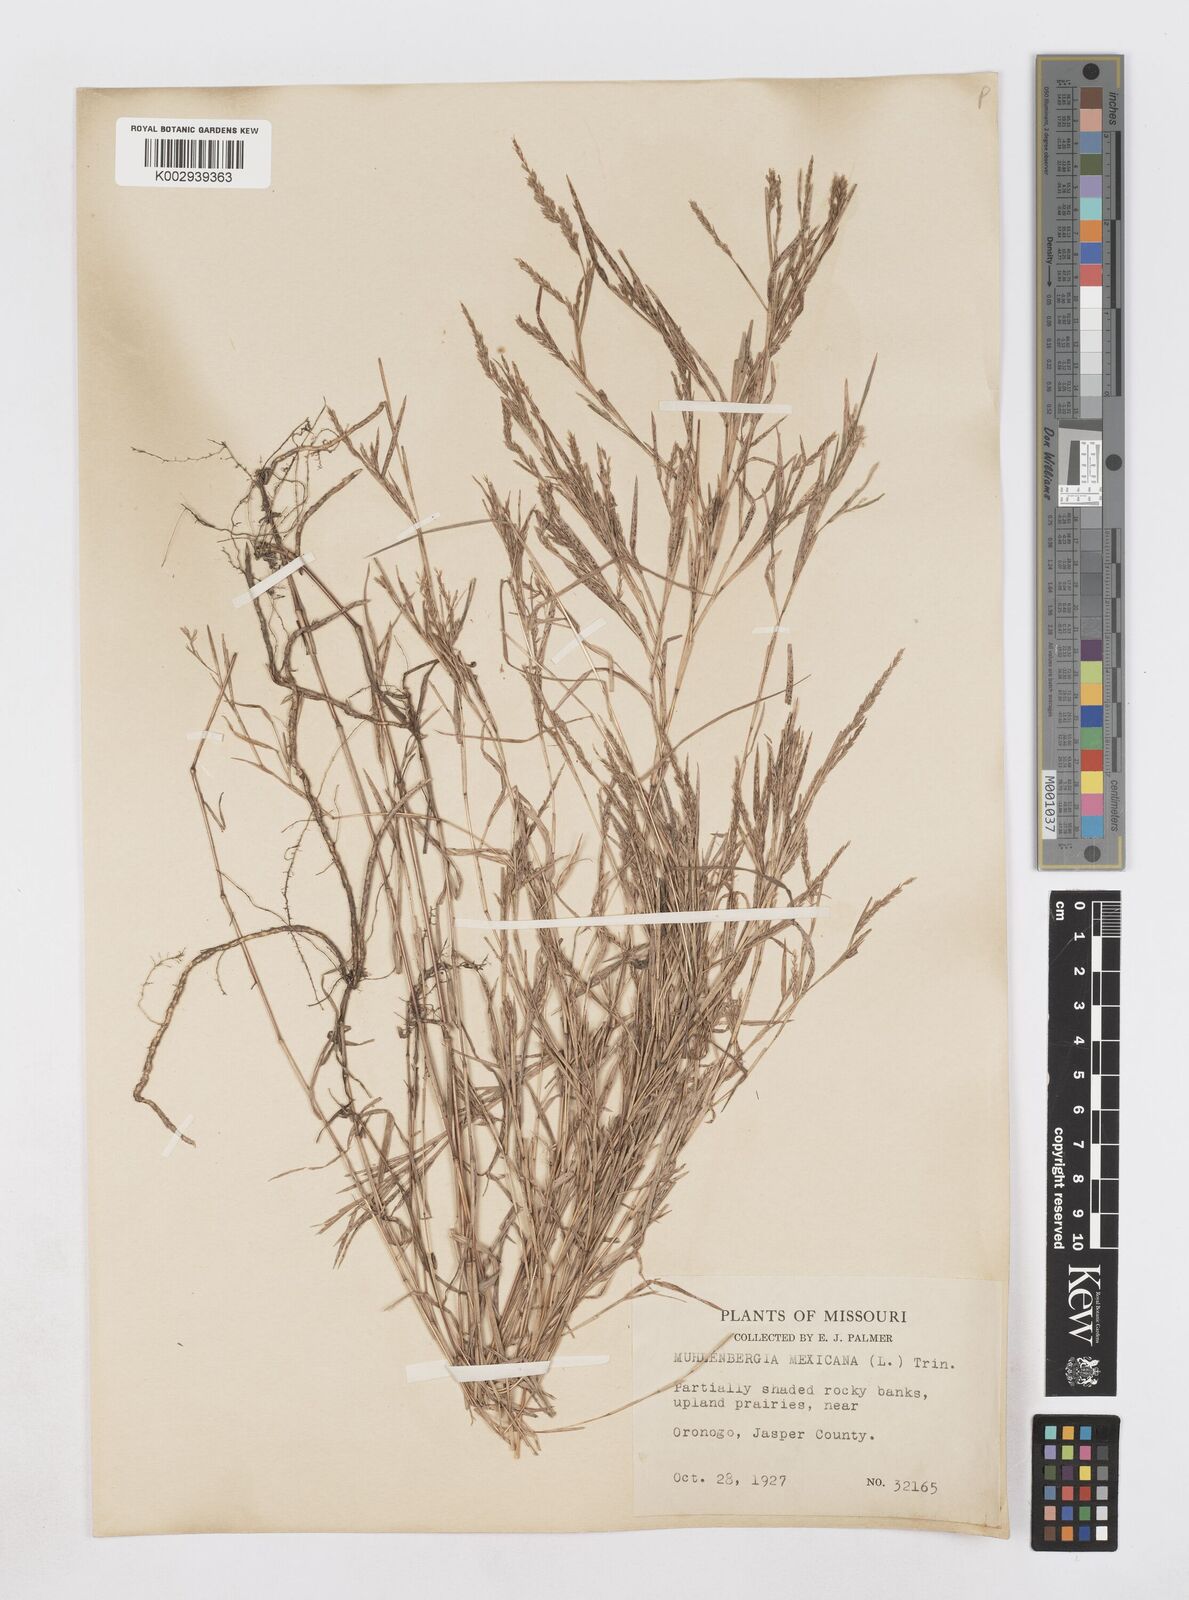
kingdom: Plantae
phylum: Tracheophyta
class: Liliopsida
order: Poales
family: Poaceae
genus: Muhlenbergia
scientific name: Muhlenbergia mexicana
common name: Mexican muhly
